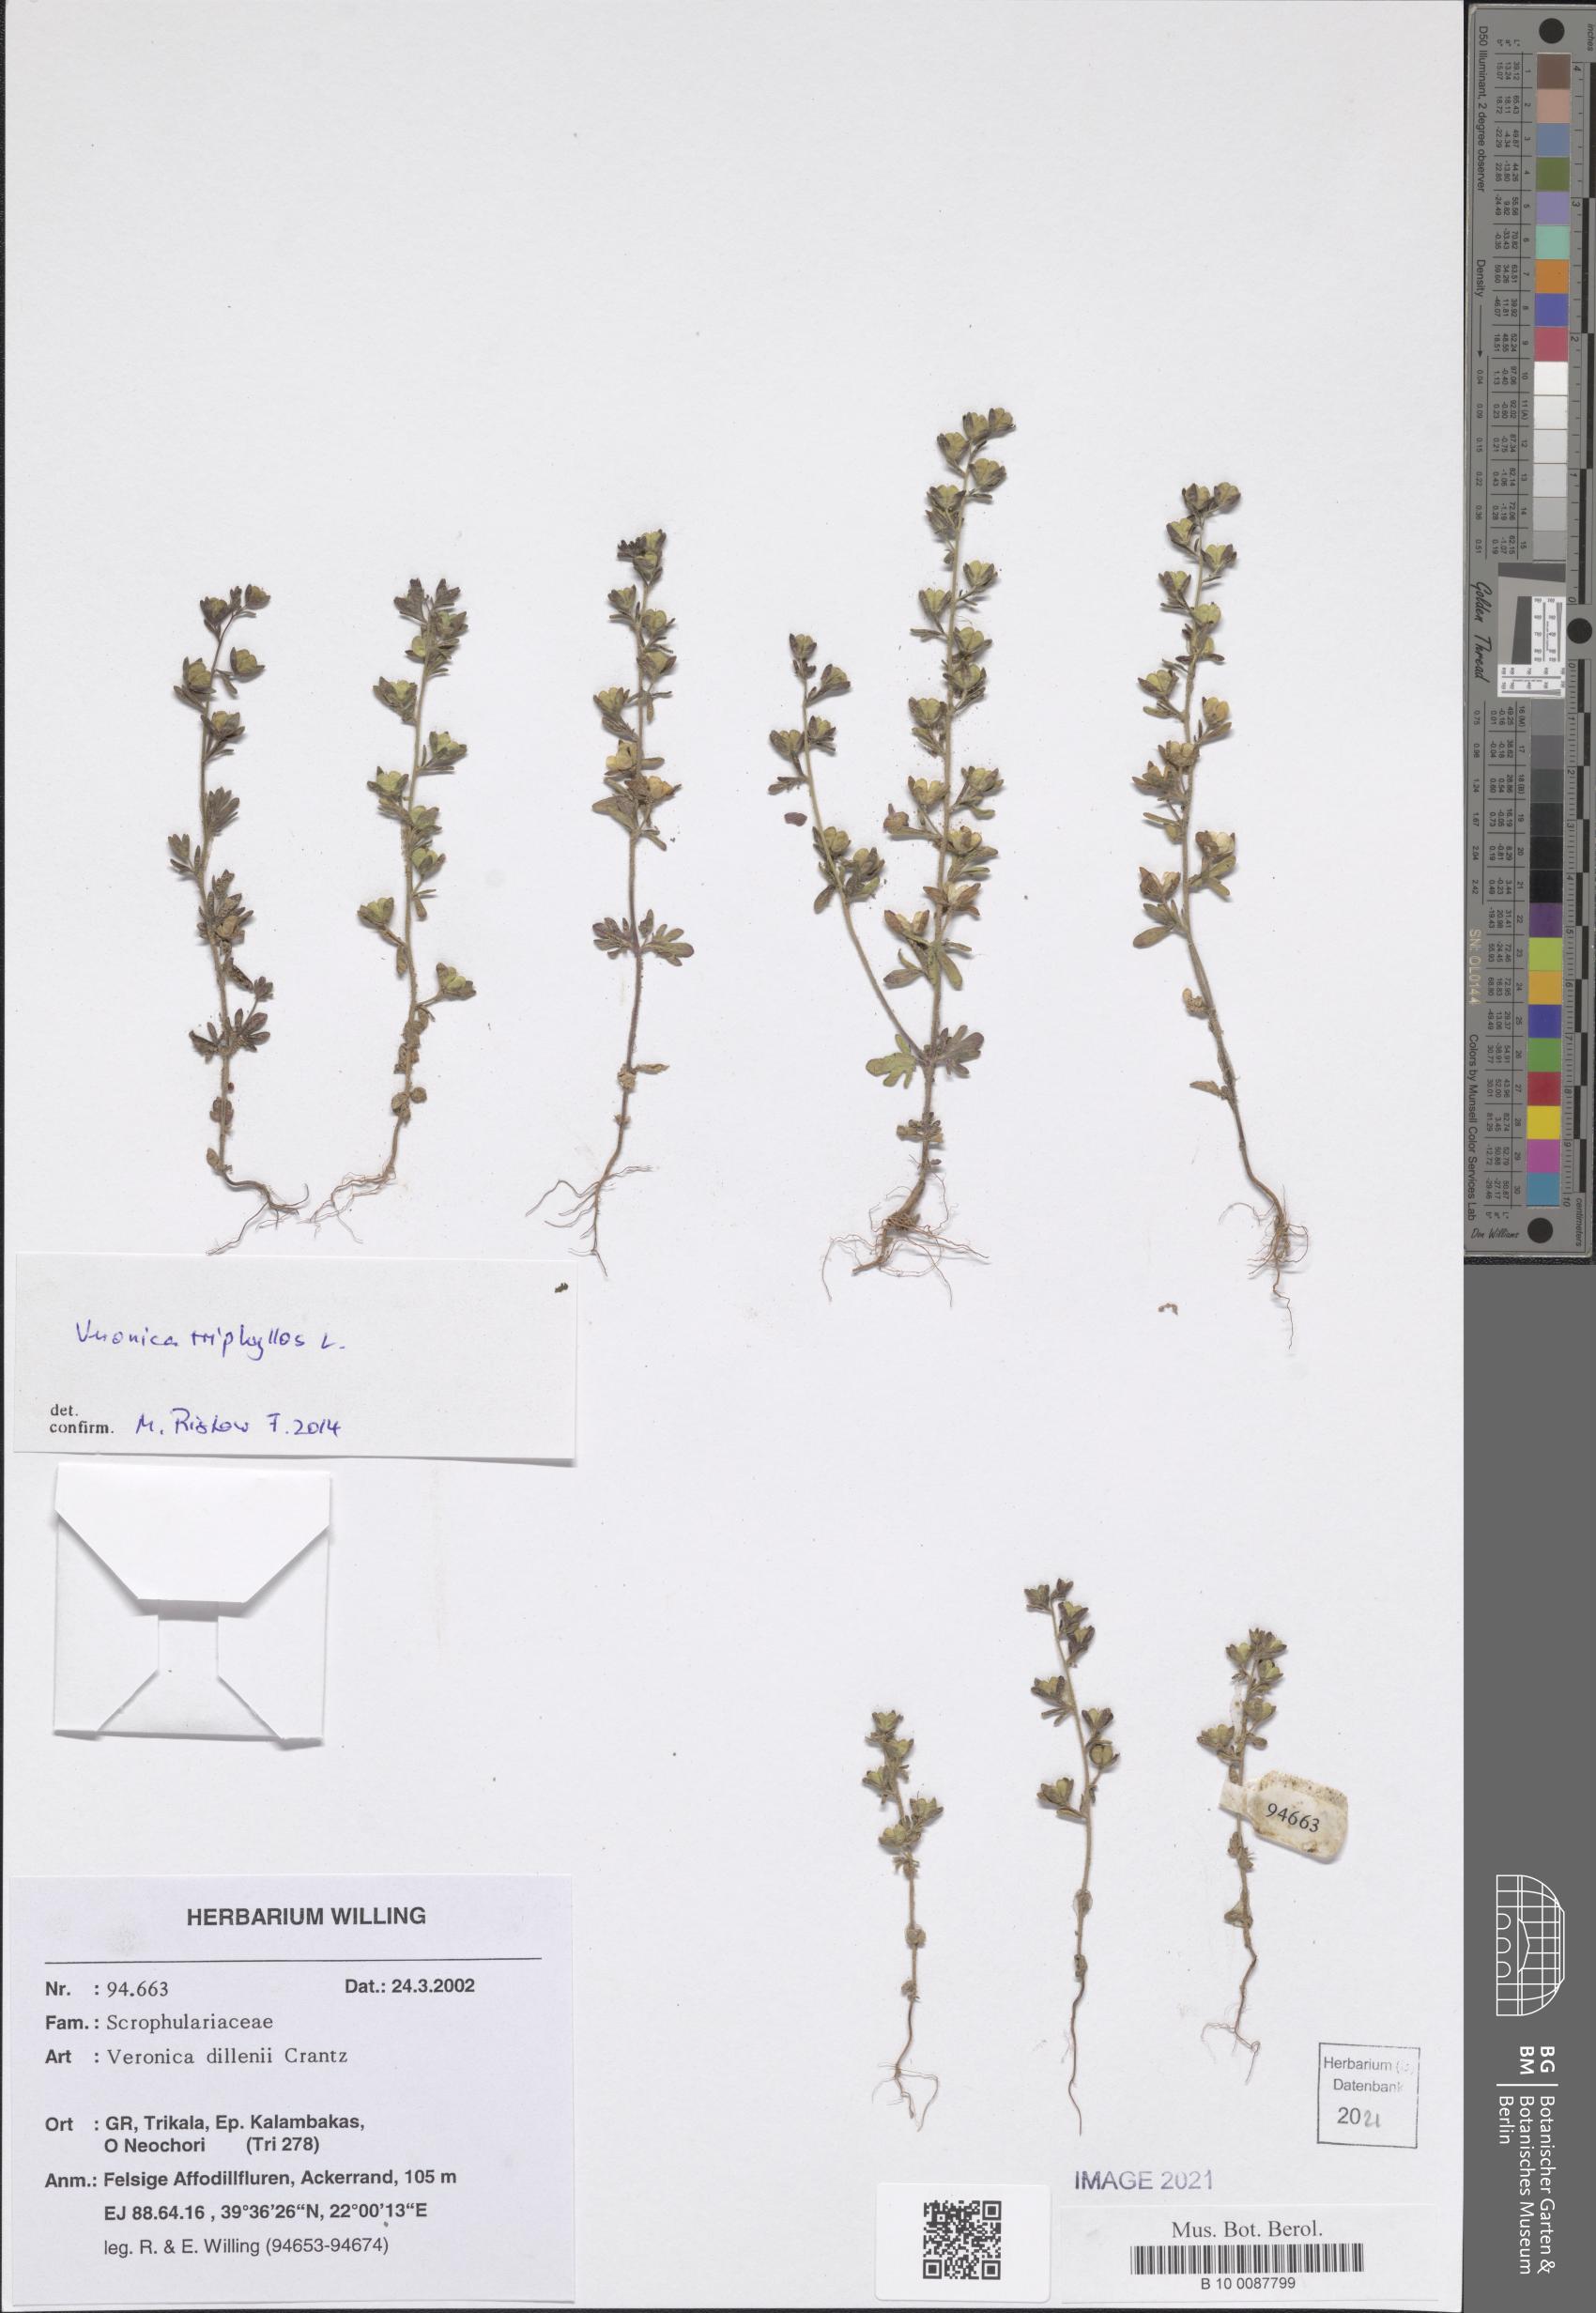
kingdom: Plantae
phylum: Tracheophyta
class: Magnoliopsida
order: Lamiales
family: Plantaginaceae
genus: Veronica
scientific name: Veronica triphyllos
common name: Fingered speedwell
